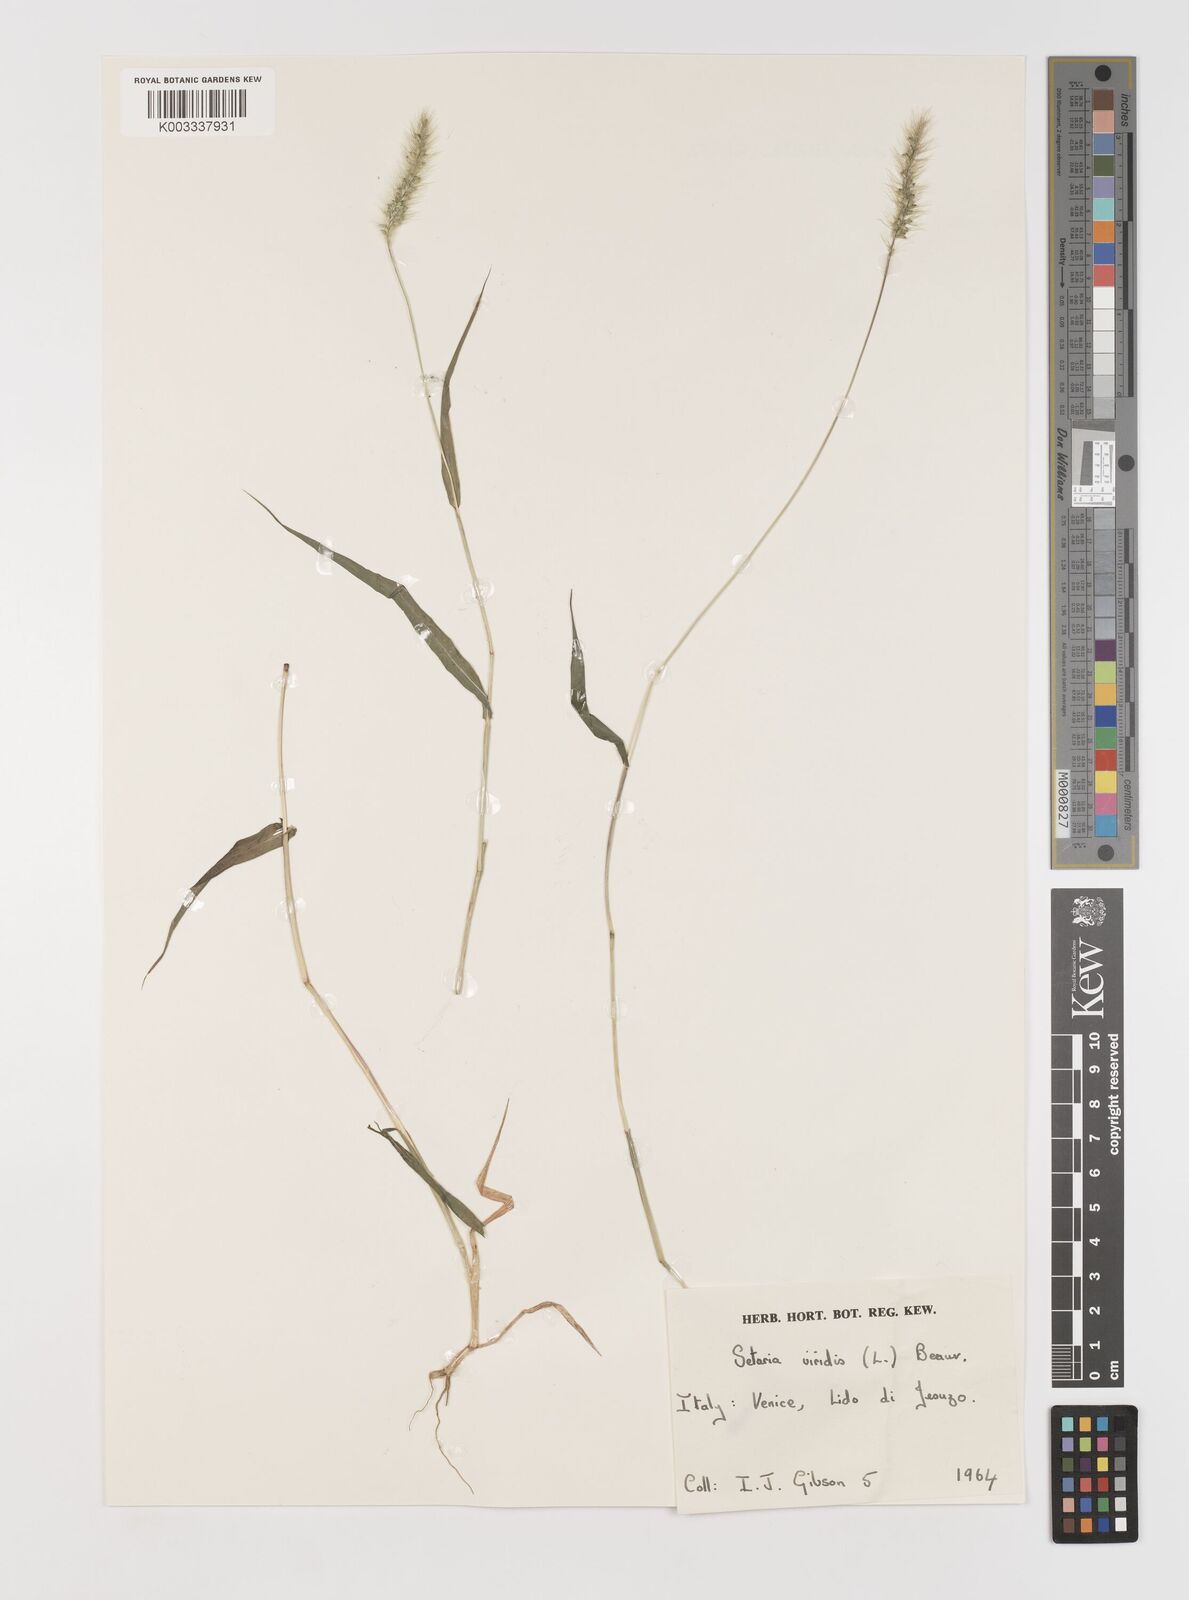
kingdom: Plantae
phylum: Tracheophyta
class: Liliopsida
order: Poales
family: Poaceae
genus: Setaria
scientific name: Setaria viridis
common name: Green bristlegrass
